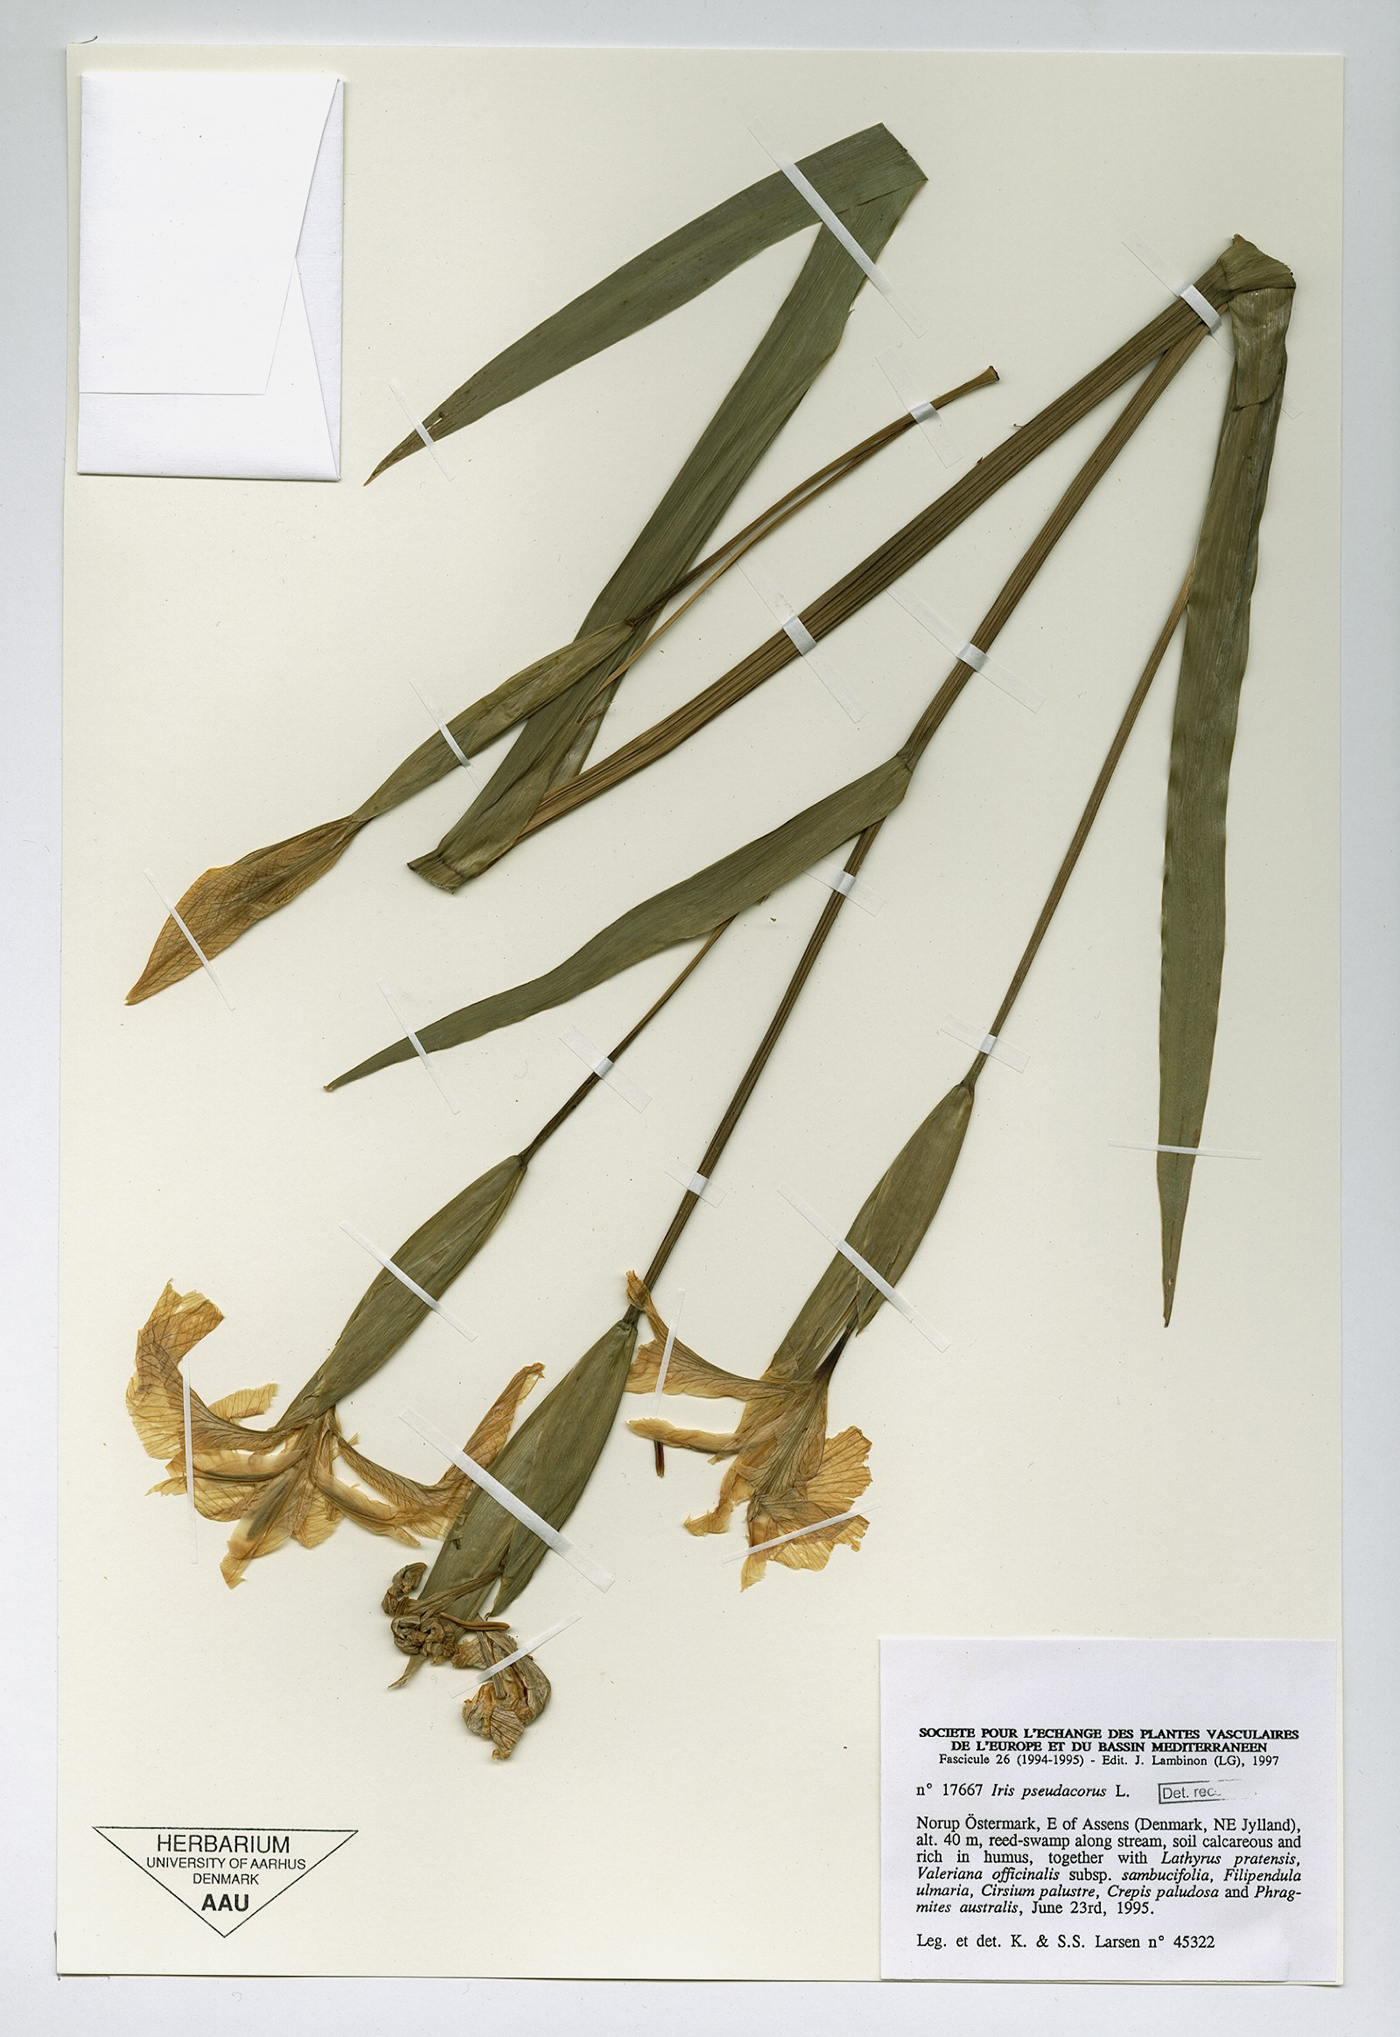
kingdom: Plantae
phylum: Tracheophyta
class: Liliopsida
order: Asparagales
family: Iridaceae
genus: Iris
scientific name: Iris pseudacorus
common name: Yellow flag
